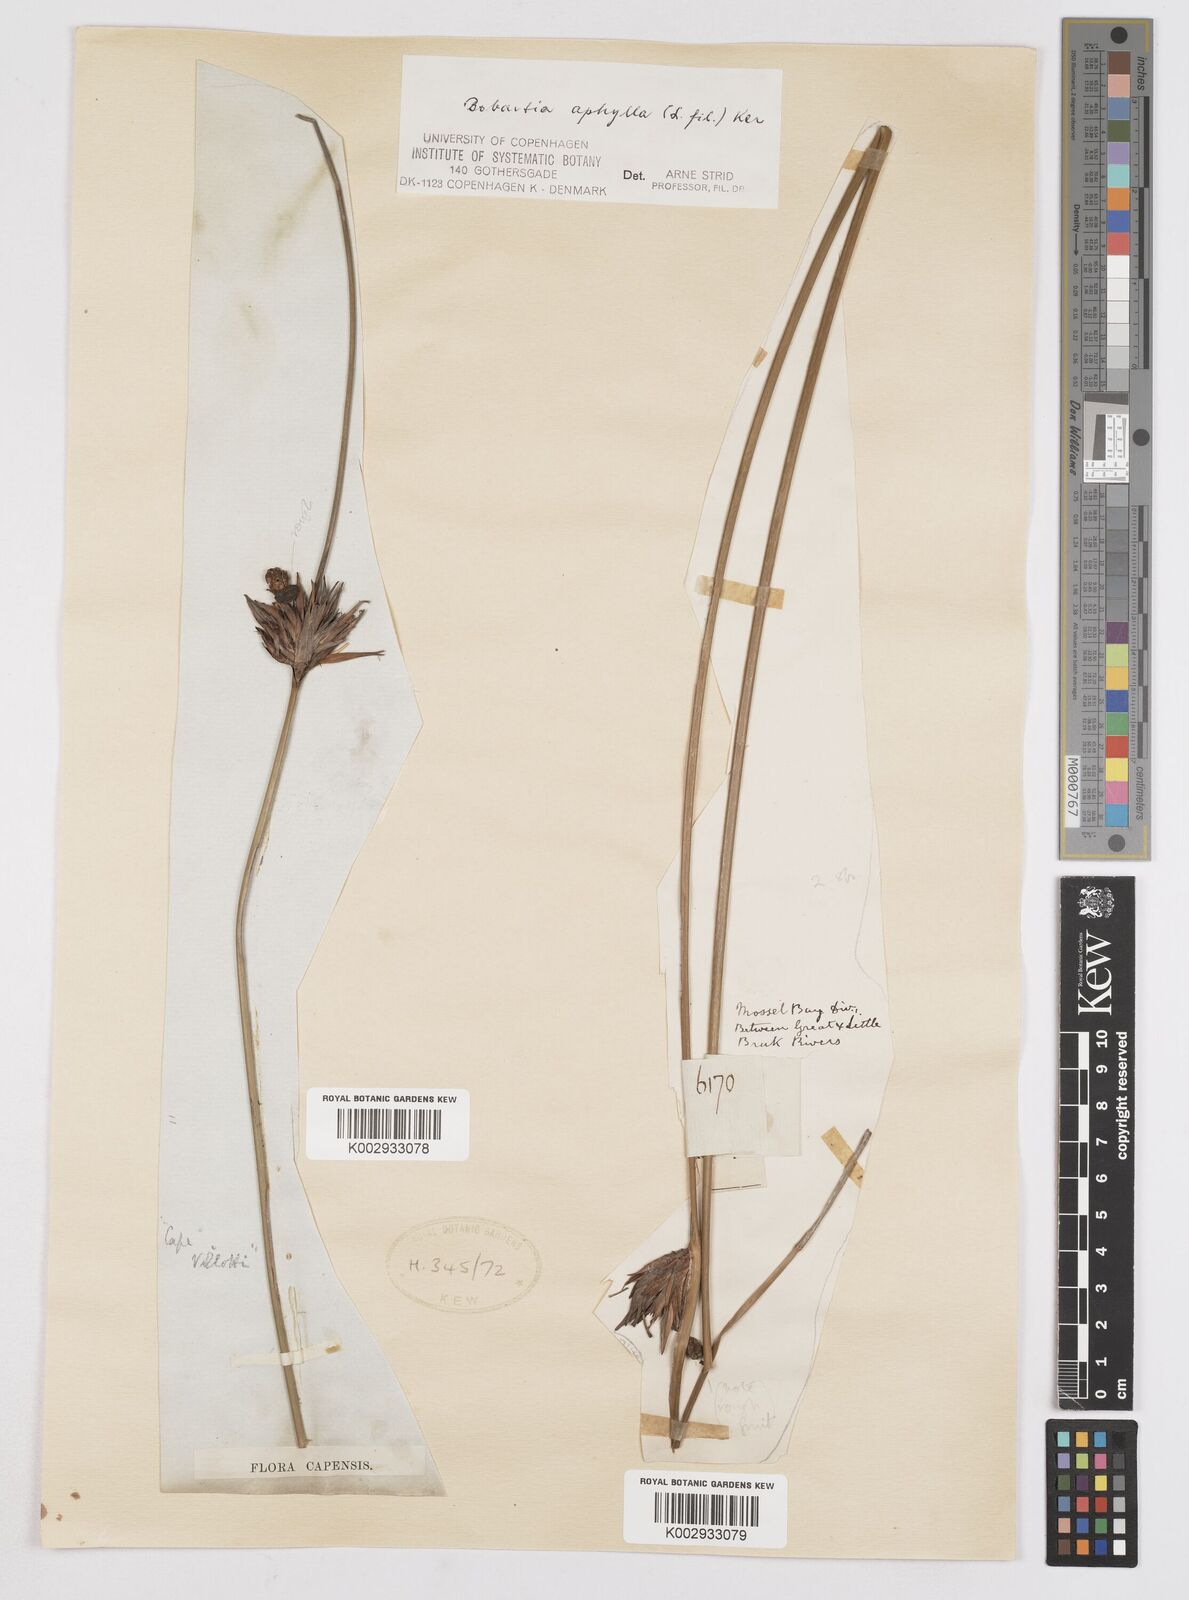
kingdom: Plantae
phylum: Tracheophyta
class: Liliopsida
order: Asparagales
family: Iridaceae
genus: Bobartia
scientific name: Bobartia aphylla
